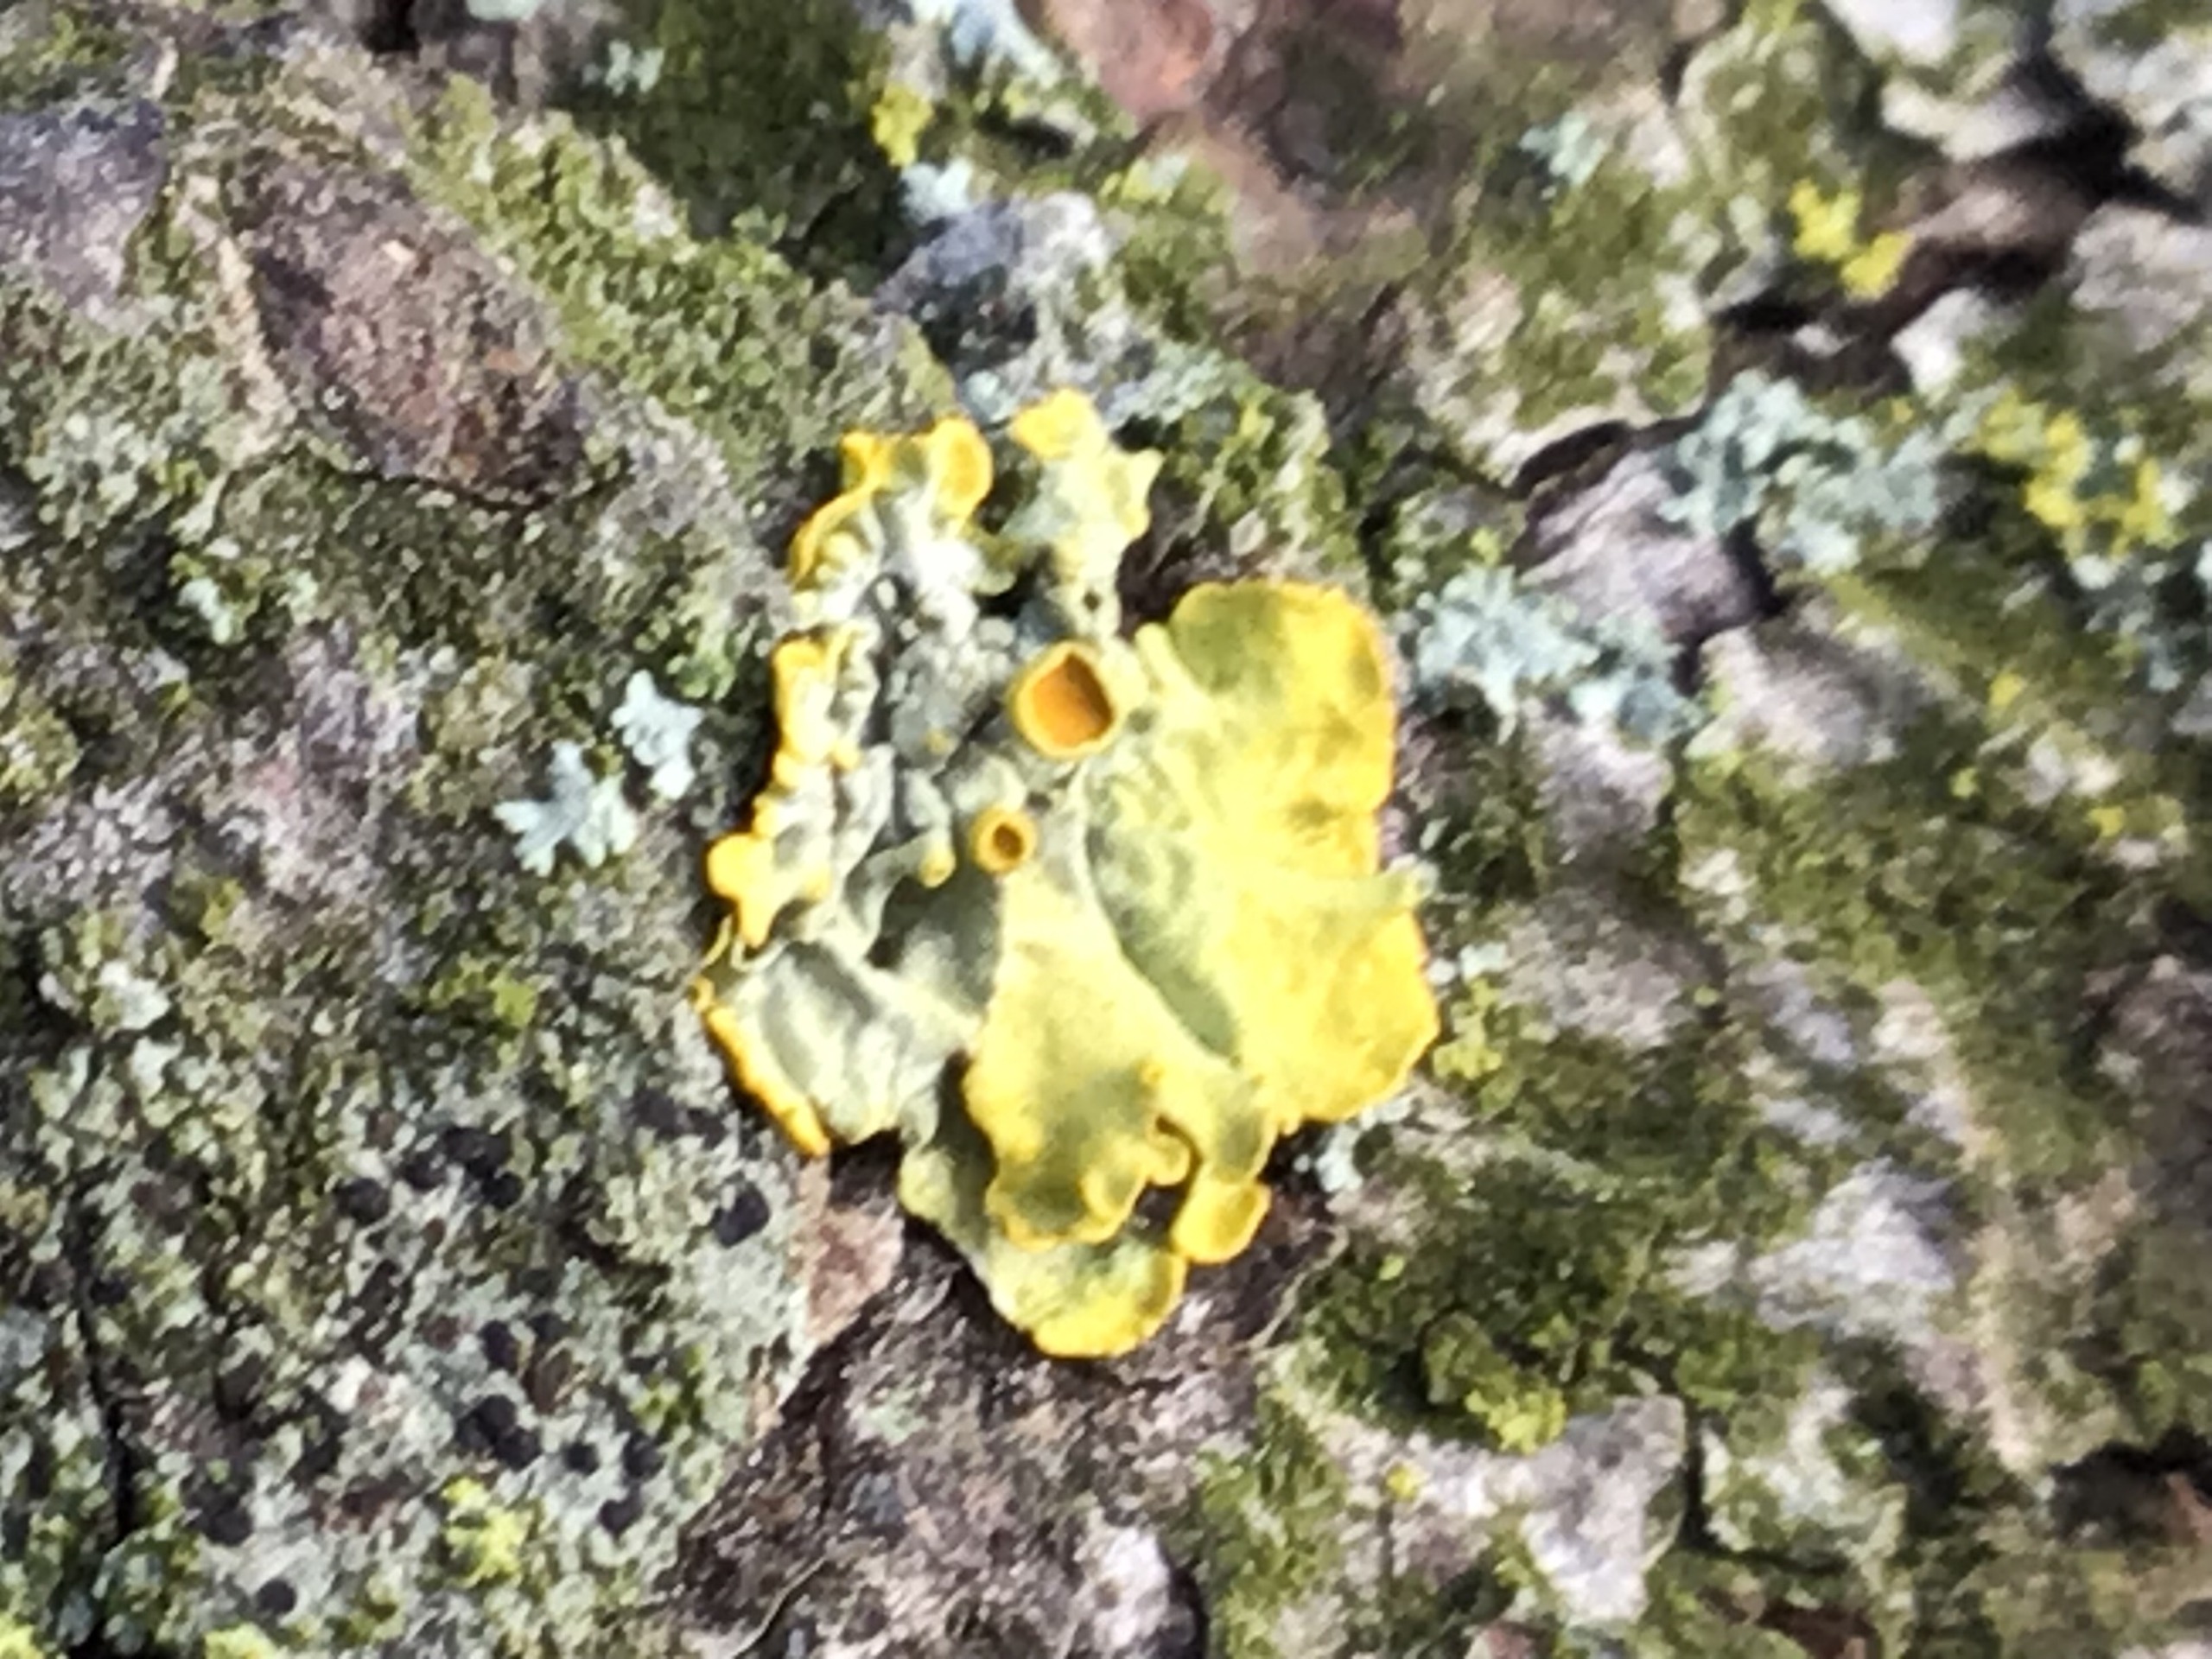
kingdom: Fungi
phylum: Ascomycota
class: Lecanoromycetes
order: Teloschistales
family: Teloschistaceae
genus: Xanthoria
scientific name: Xanthoria parietina
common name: Almindelig væggelav
